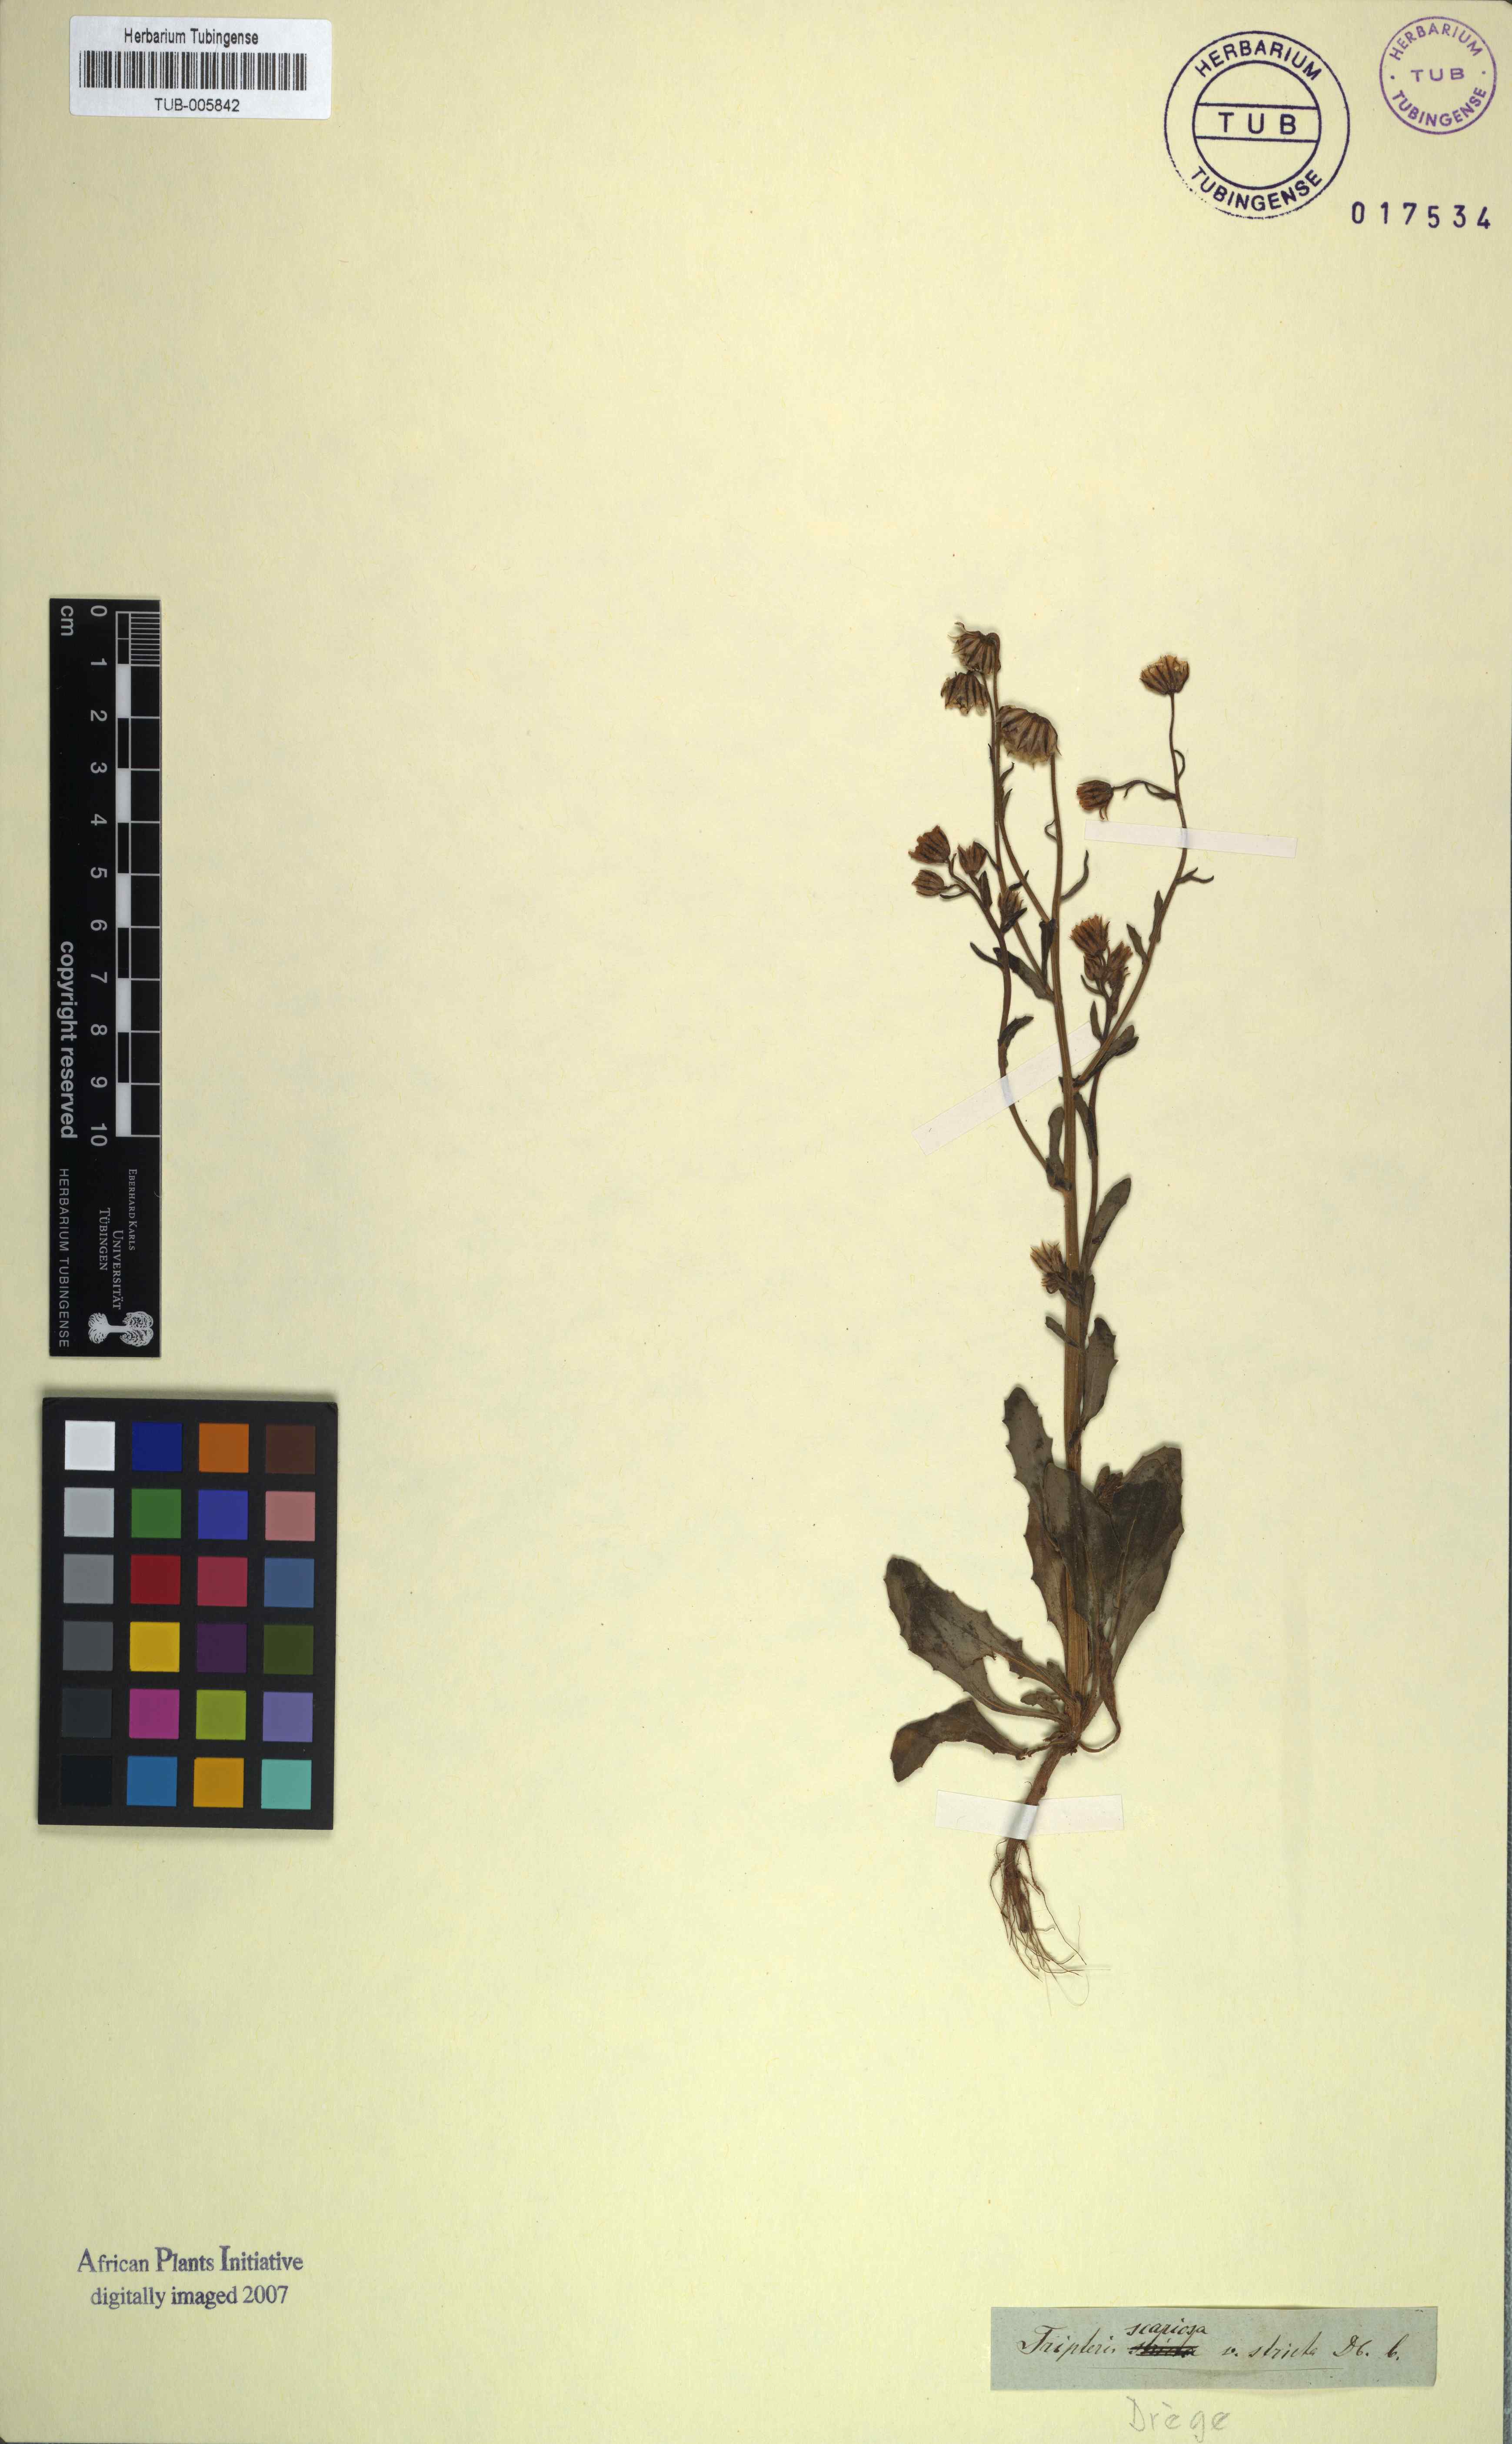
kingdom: Plantae
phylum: Tracheophyta
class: Magnoliopsida
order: Asterales
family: Asteraceae
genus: Osteospermum
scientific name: Osteospermum monstrosum
